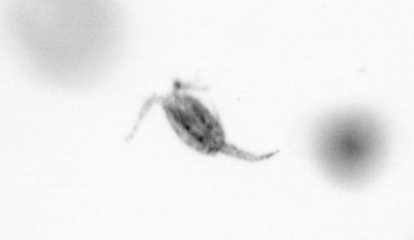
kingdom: Animalia
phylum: Arthropoda
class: Copepoda
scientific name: Copepoda
